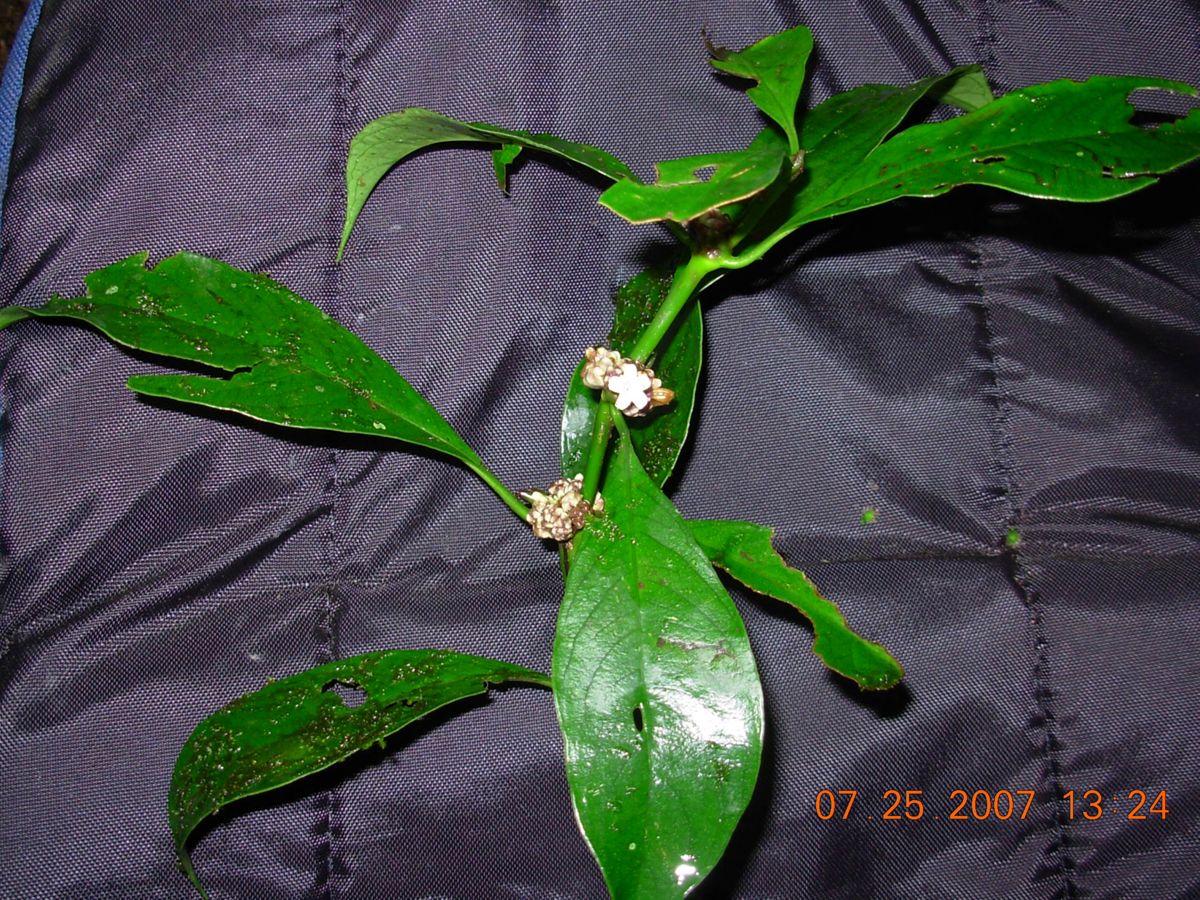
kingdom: Plantae
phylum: Tracheophyta
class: Magnoliopsida
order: Gentianales
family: Rubiaceae
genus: Palicourea
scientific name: Palicourea axillaris
